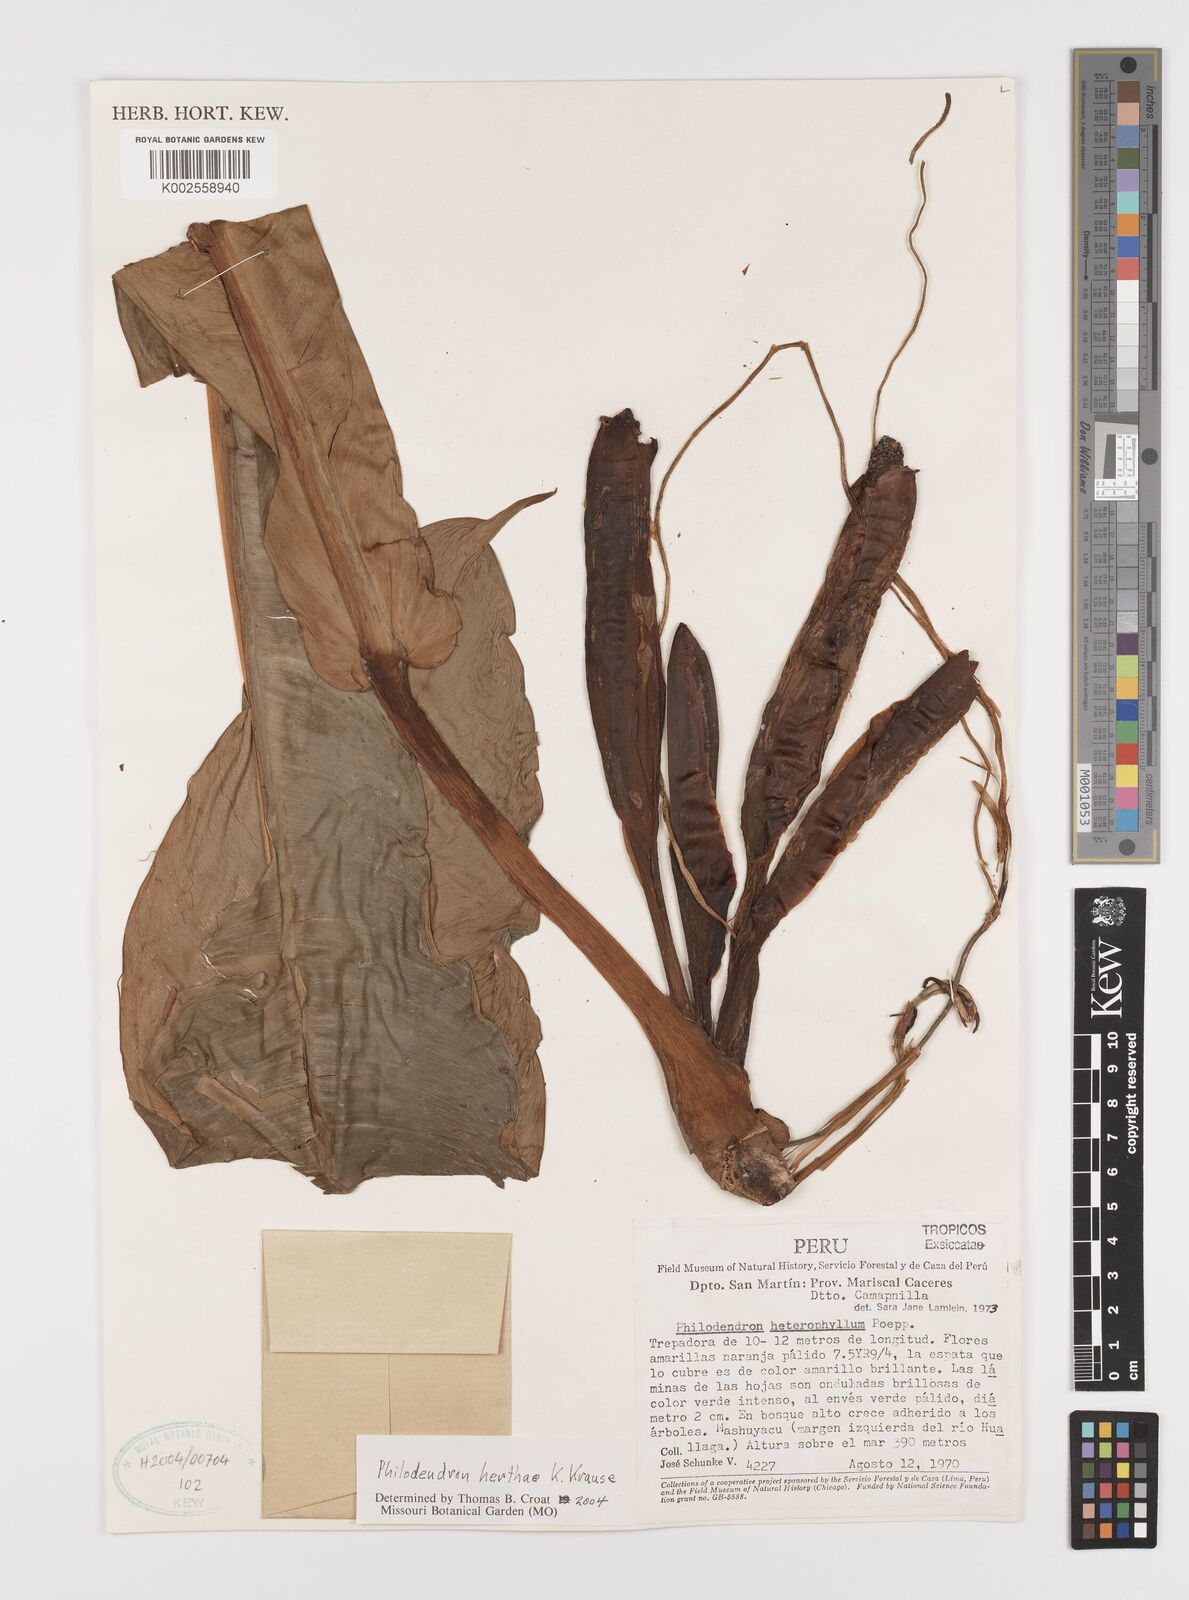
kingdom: Plantae
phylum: Tracheophyta
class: Liliopsida
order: Alismatales
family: Araceae
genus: Philodendron
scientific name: Philodendron herthae
